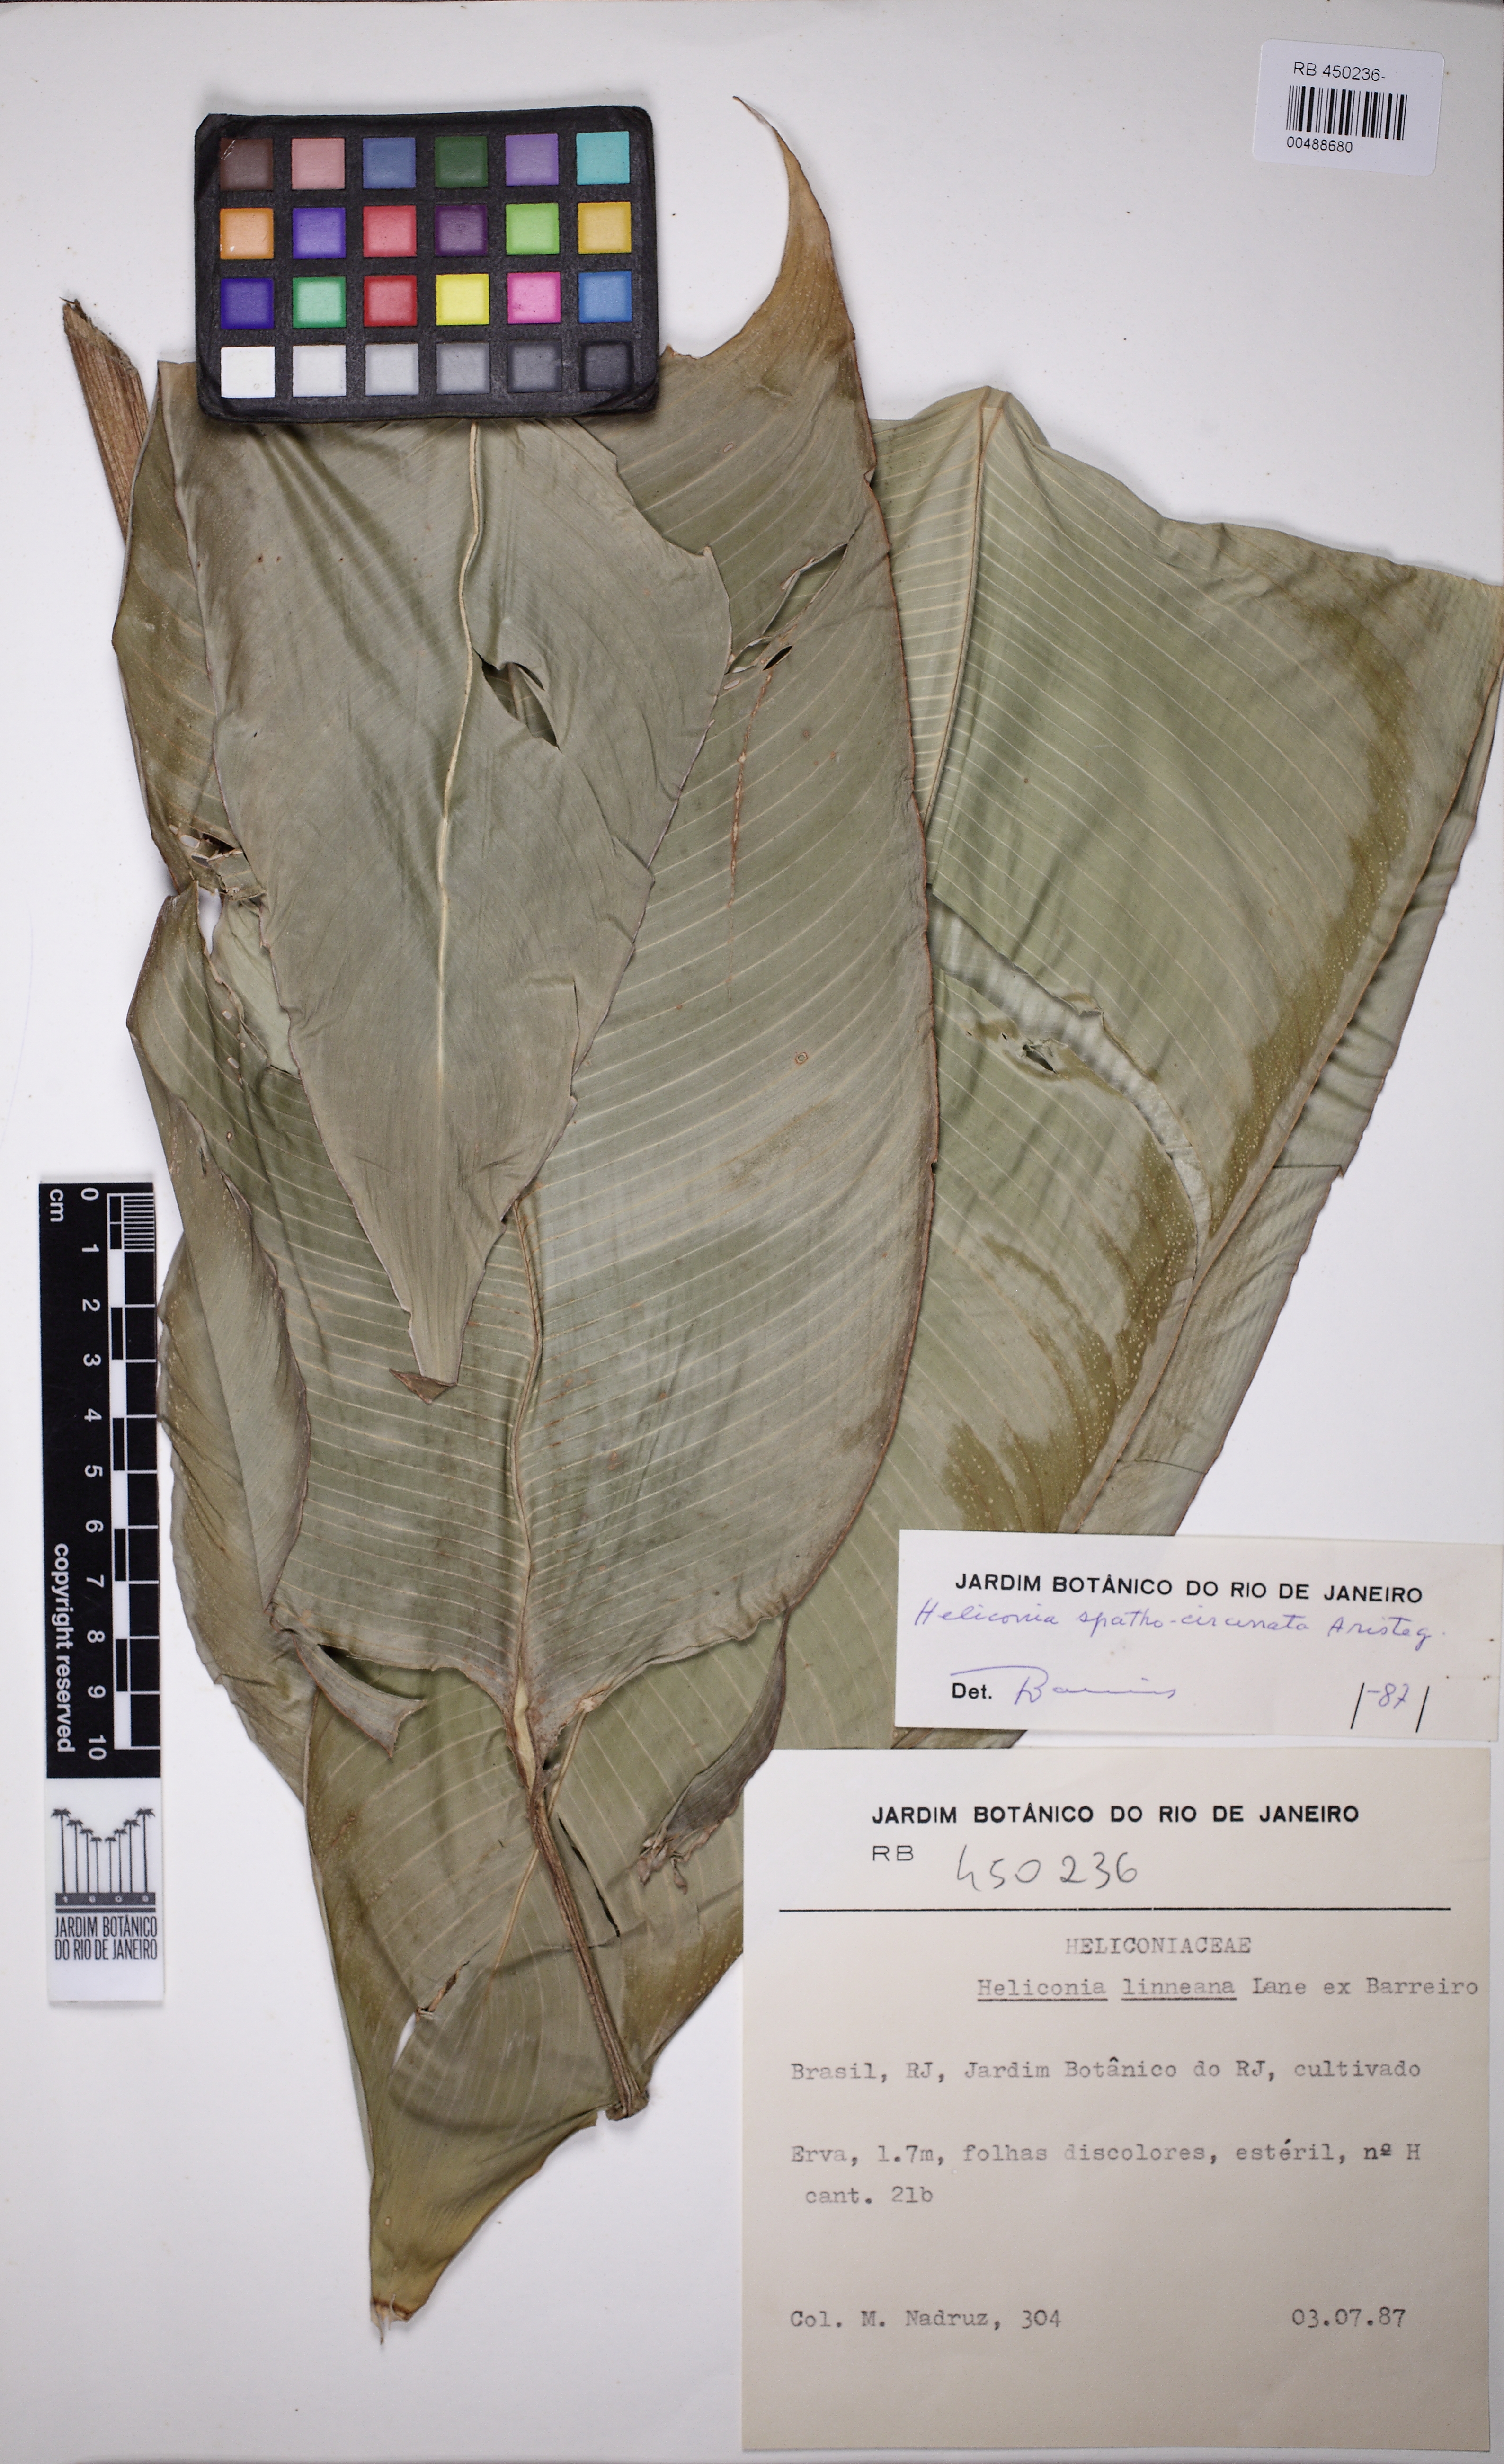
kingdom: Plantae
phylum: Tracheophyta
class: Liliopsida
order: Zingiberales
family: Heliconiaceae
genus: Heliconia
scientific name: Heliconia spathocircinata
